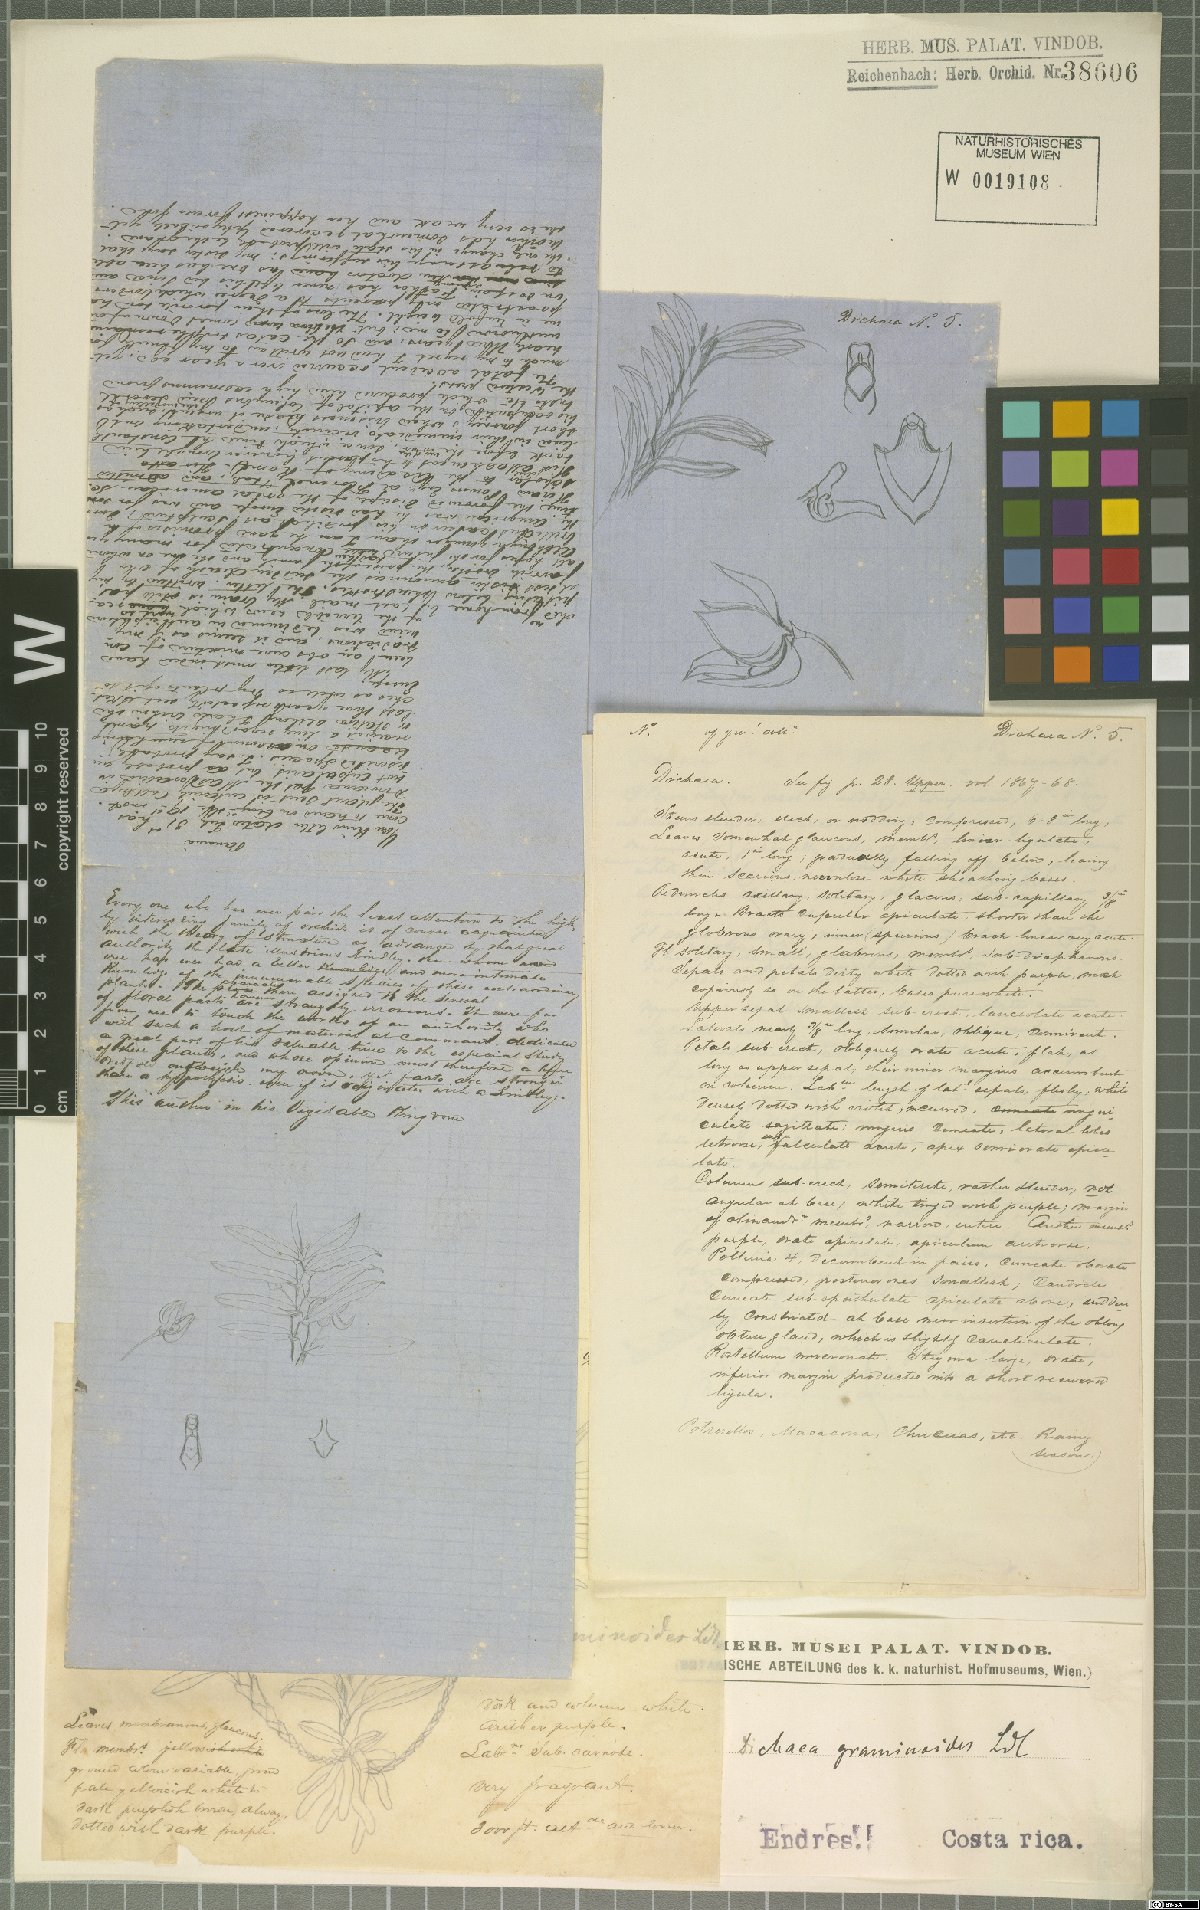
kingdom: Plantae
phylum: Tracheophyta
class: Liliopsida
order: Asparagales
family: Orchidaceae
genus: Dichaea
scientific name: Dichaea graminoides
